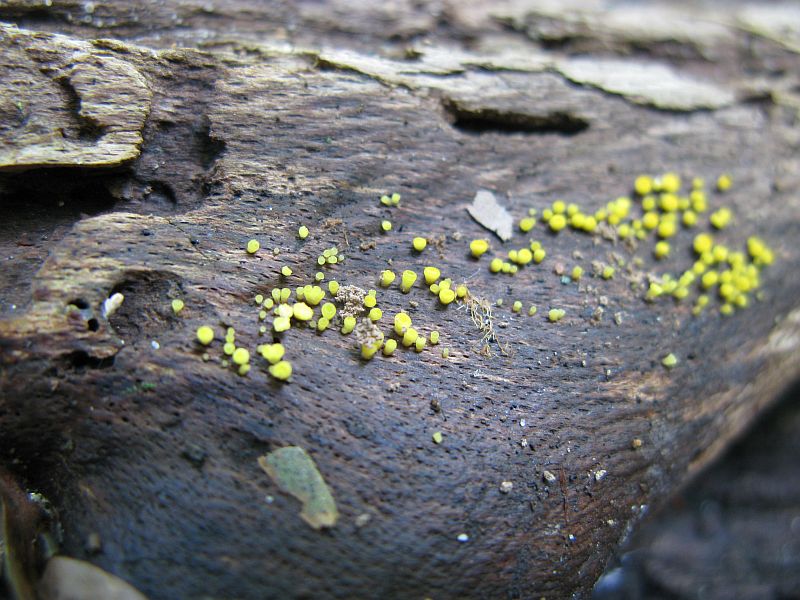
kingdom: Fungi
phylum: Ascomycota
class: Leotiomycetes
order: Helotiales
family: Pezizellaceae
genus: Calycina
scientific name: Calycina citrina
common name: almindelig gulskive
